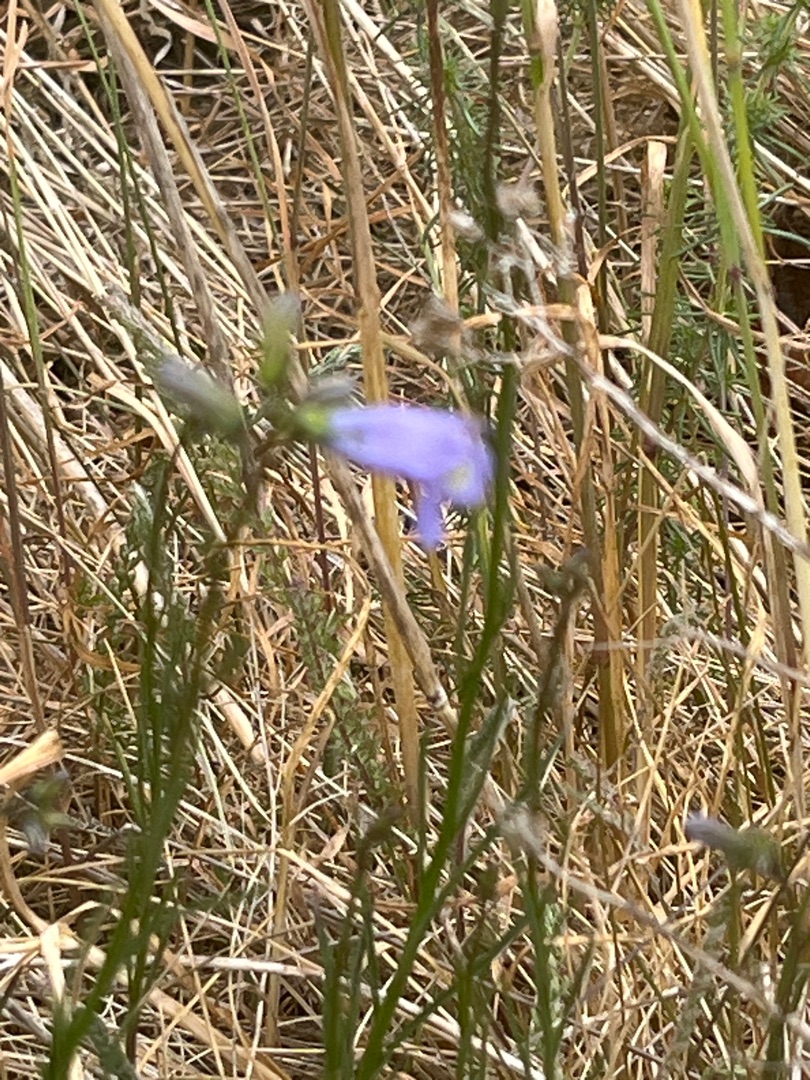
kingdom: Plantae
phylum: Tracheophyta
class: Magnoliopsida
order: Asterales
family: Campanulaceae
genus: Campanula
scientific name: Campanula rotundifolia
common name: Liden klokke
